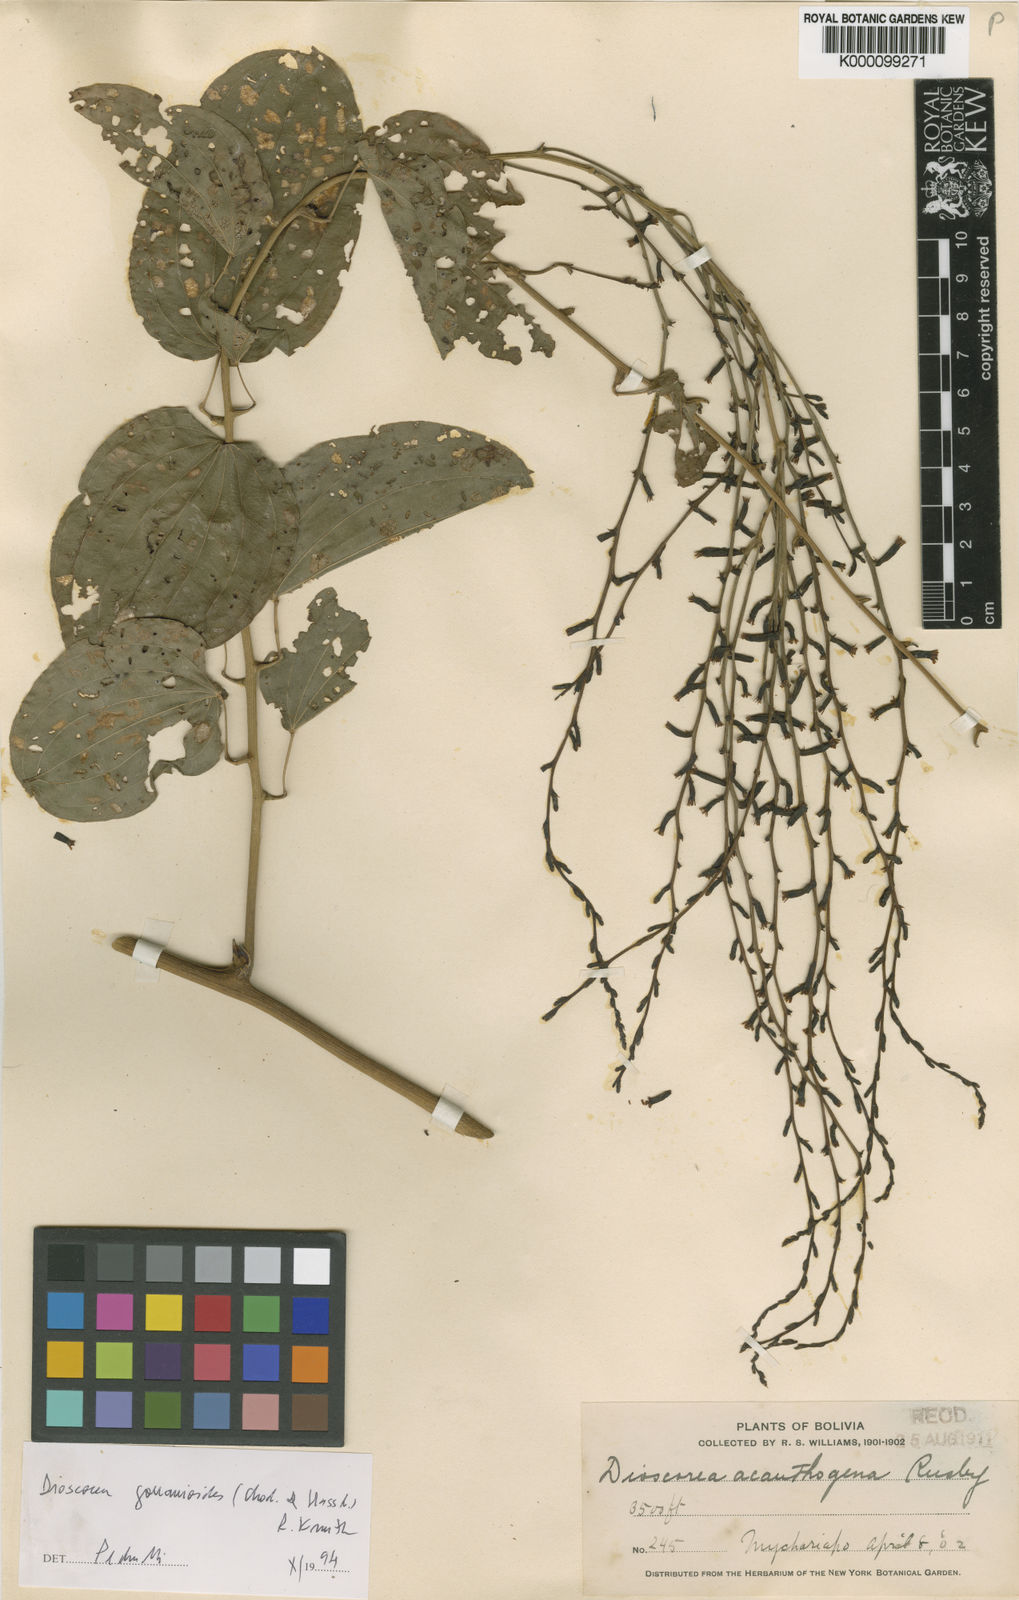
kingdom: Plantae
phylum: Tracheophyta
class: Liliopsida
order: Dioscoreales
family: Dioscoreaceae
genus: Dioscorea
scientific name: Dioscorea acanthogene
